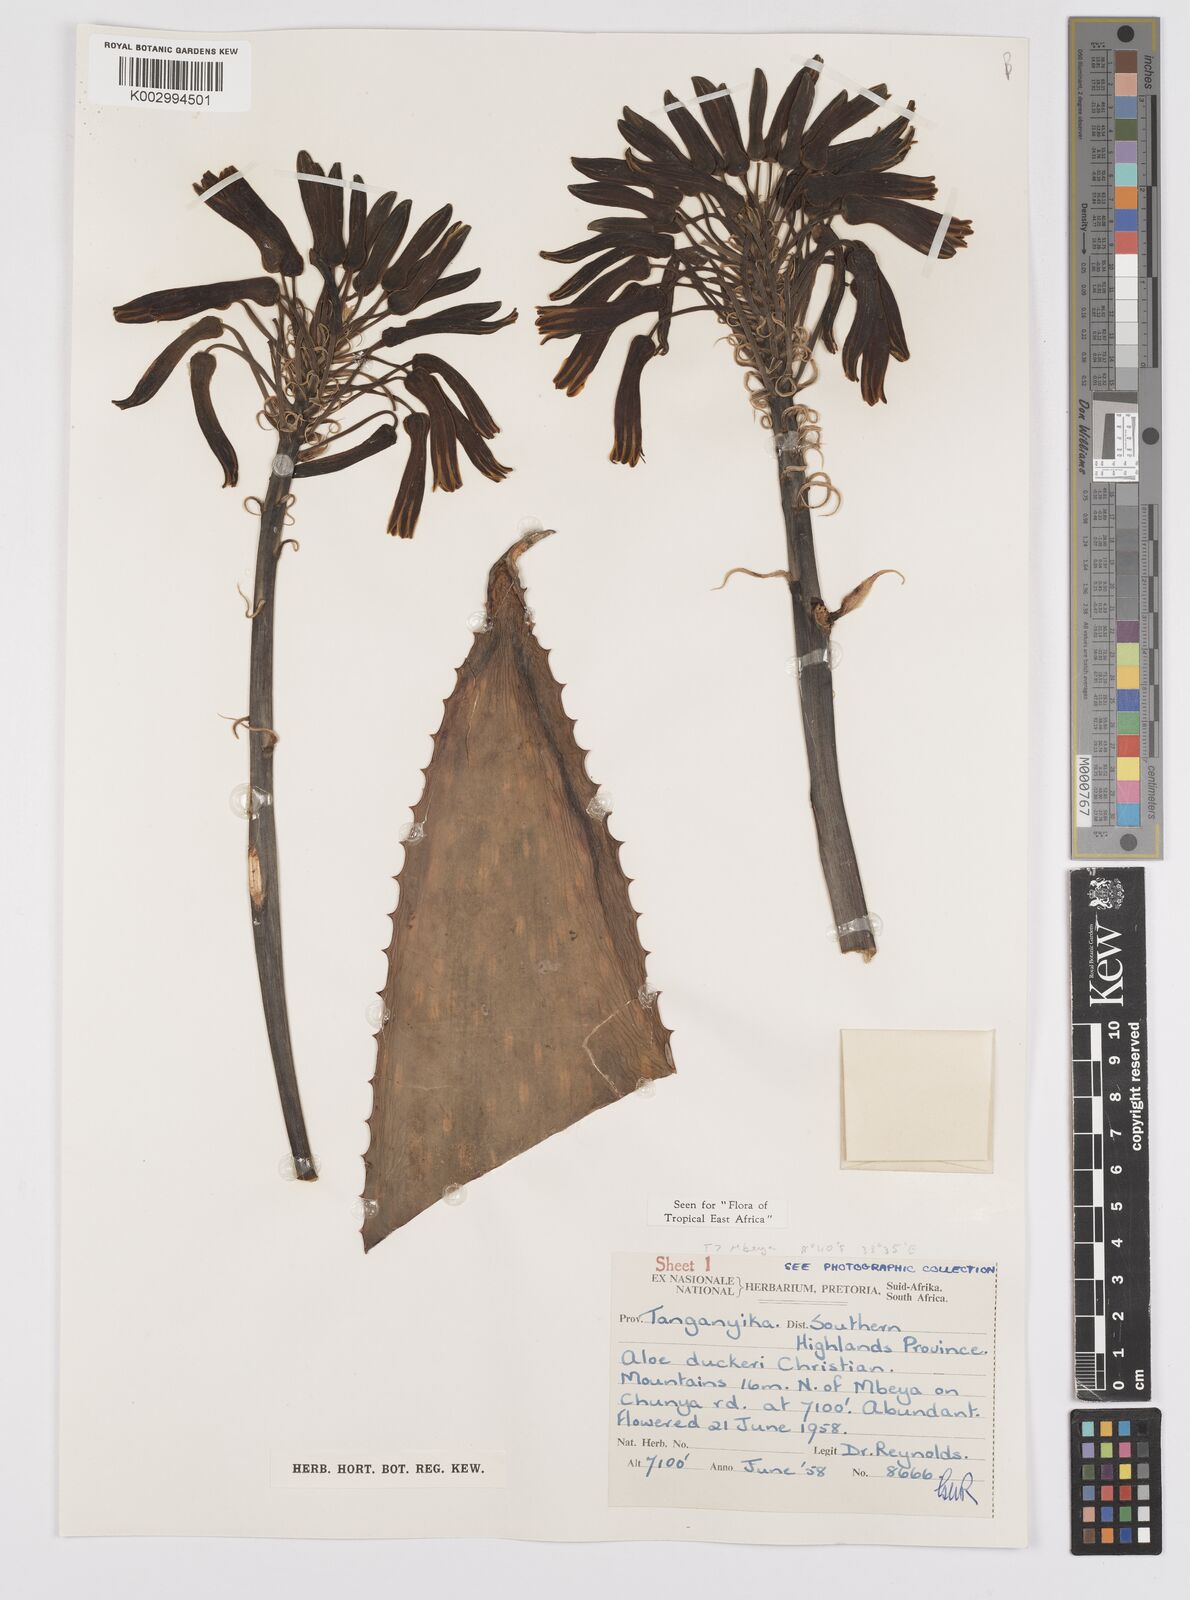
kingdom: Plantae
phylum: Tracheophyta
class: Liliopsida
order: Asparagales
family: Asphodelaceae
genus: Aloe
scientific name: Aloe duckeri
